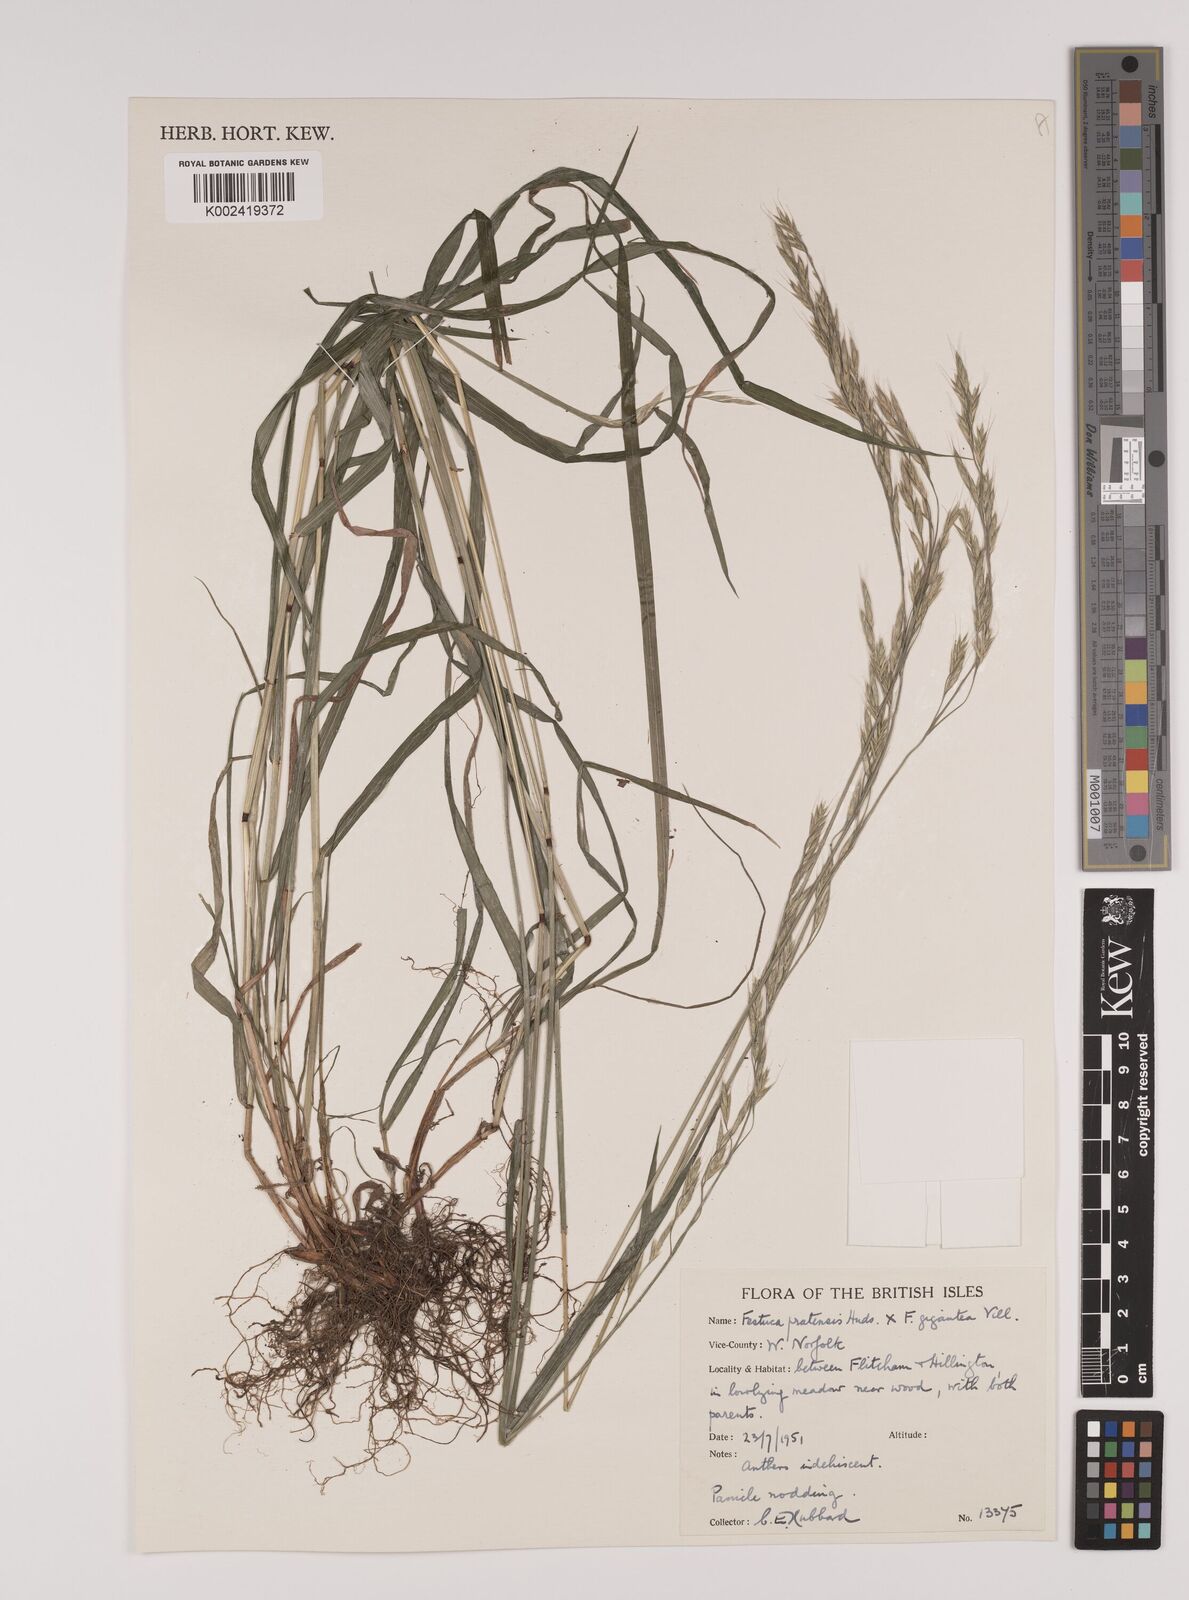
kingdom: Plantae
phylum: Tracheophyta
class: Liliopsida
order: Poales
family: Poaceae
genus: Lolium
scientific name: Lolium giganteum
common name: Giant fescue
